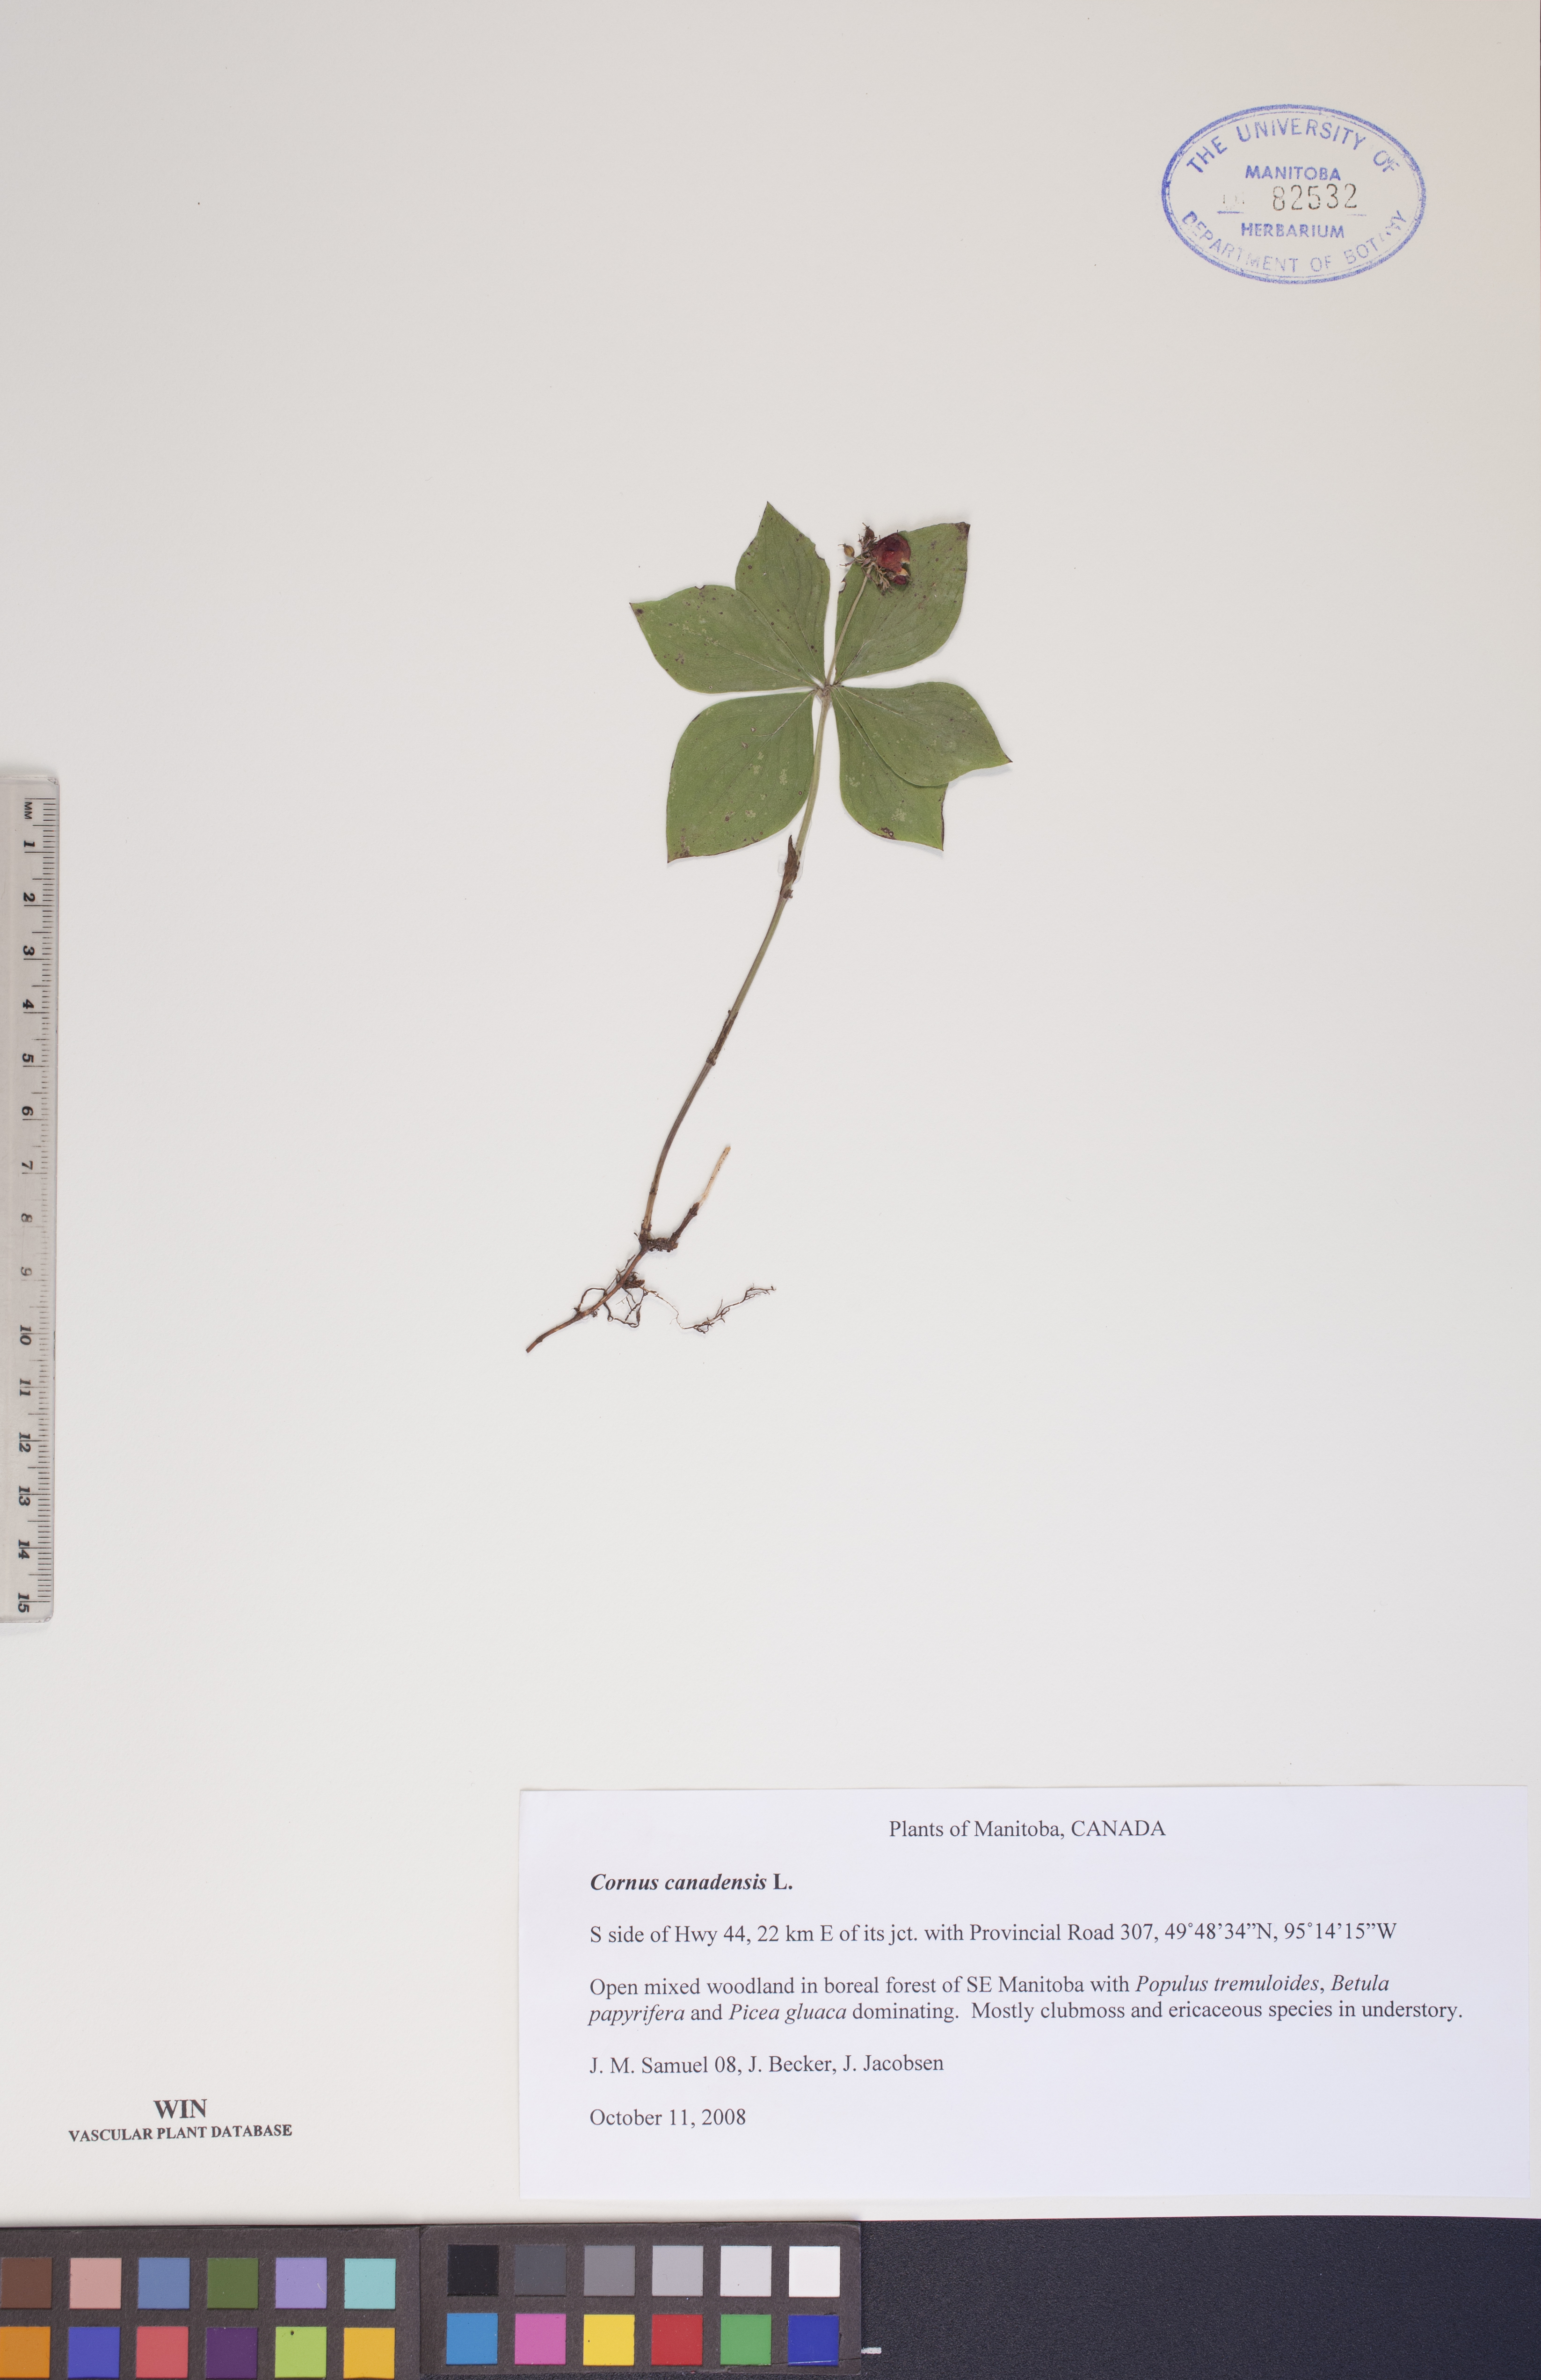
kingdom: Plantae
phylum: Tracheophyta
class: Magnoliopsida
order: Cornales
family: Cornaceae
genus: Cornus
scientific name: Cornus canadensis
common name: Creeping dogwood
